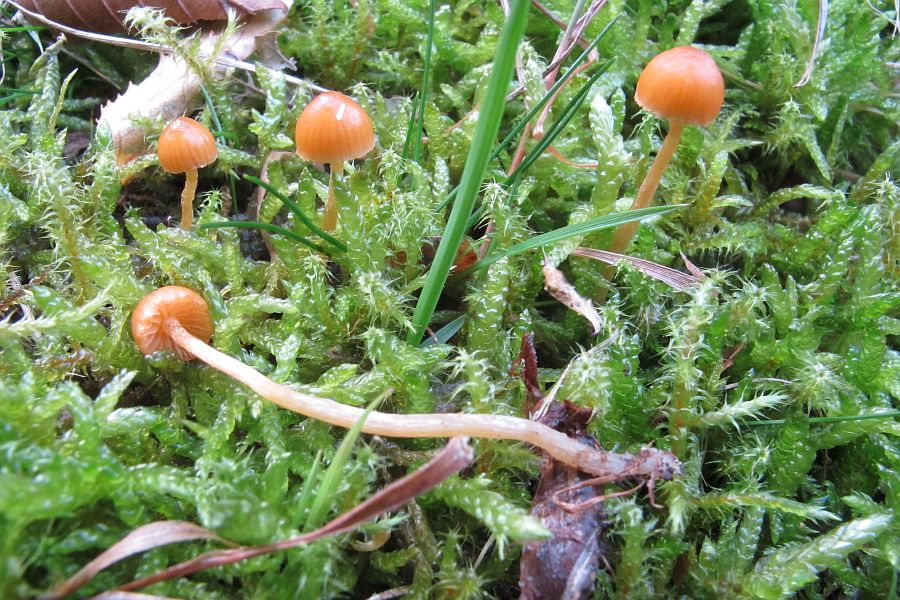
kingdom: Fungi
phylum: Basidiomycota
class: Agaricomycetes
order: Agaricales
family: Hymenogastraceae
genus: Galerina
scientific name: Galerina pumila
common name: honninggul hjelmhat
